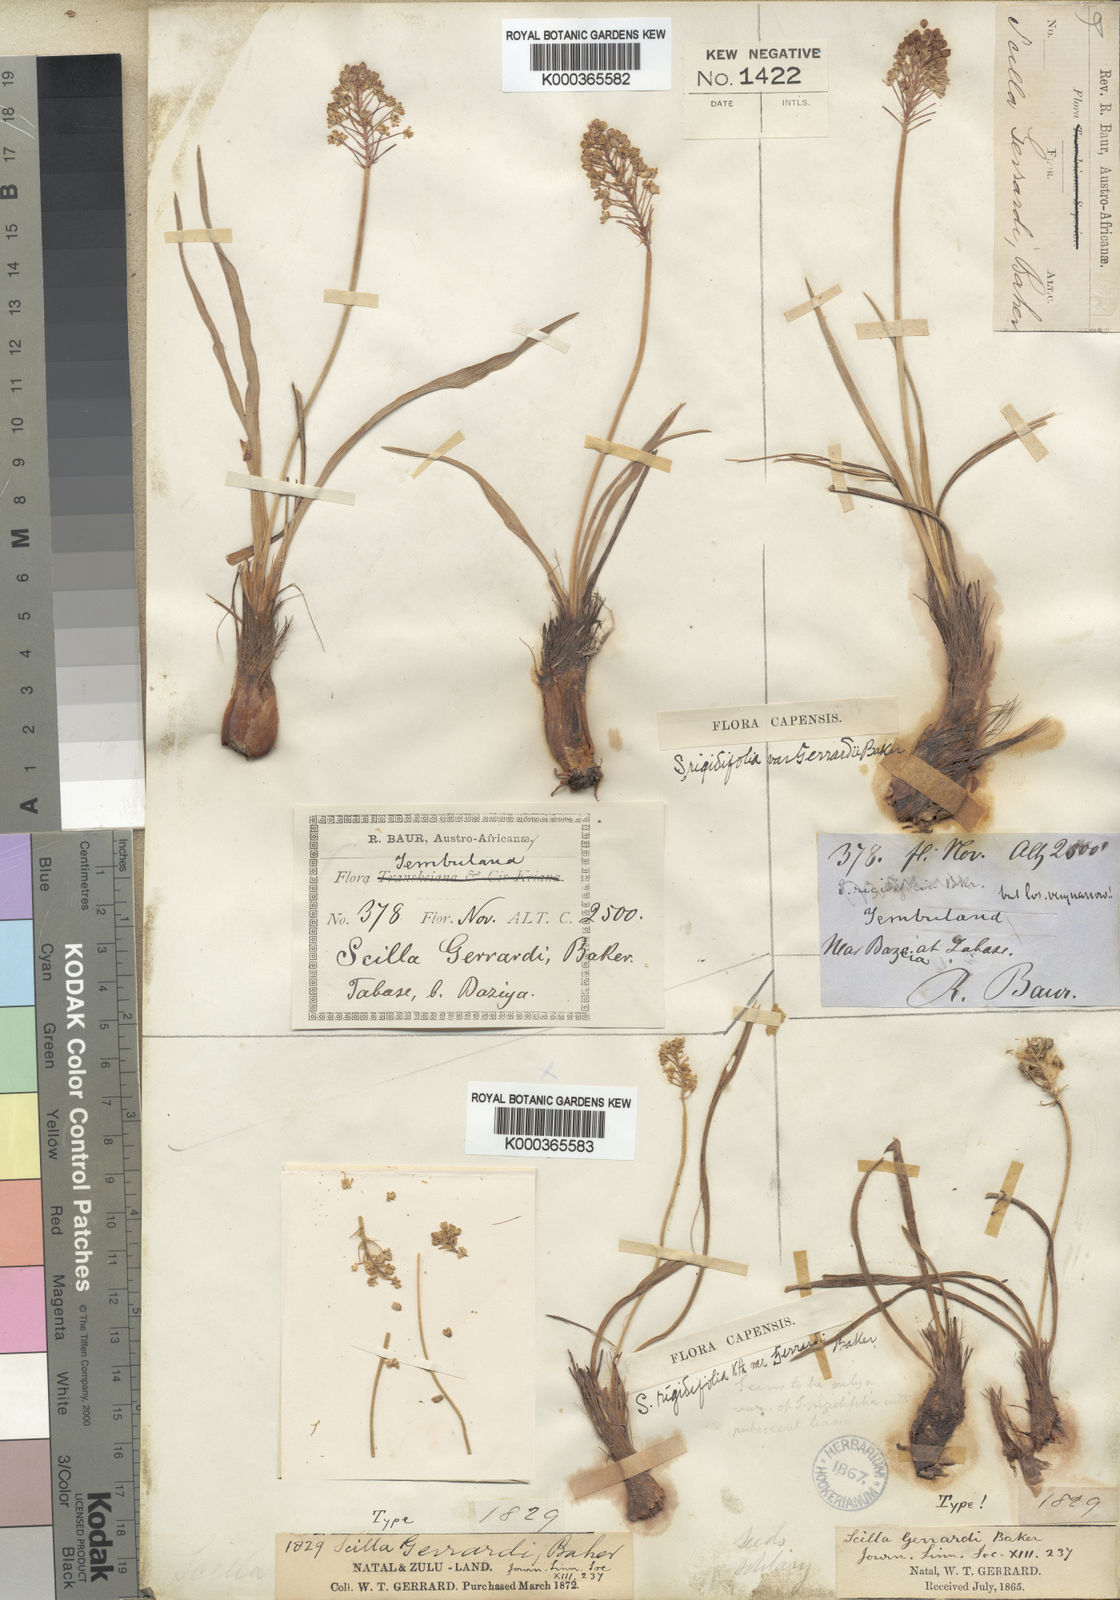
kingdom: Plantae
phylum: Tracheophyta
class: Liliopsida
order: Asparagales
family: Asparagaceae
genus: Schizocarphus
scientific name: Schizocarphus nervosus
